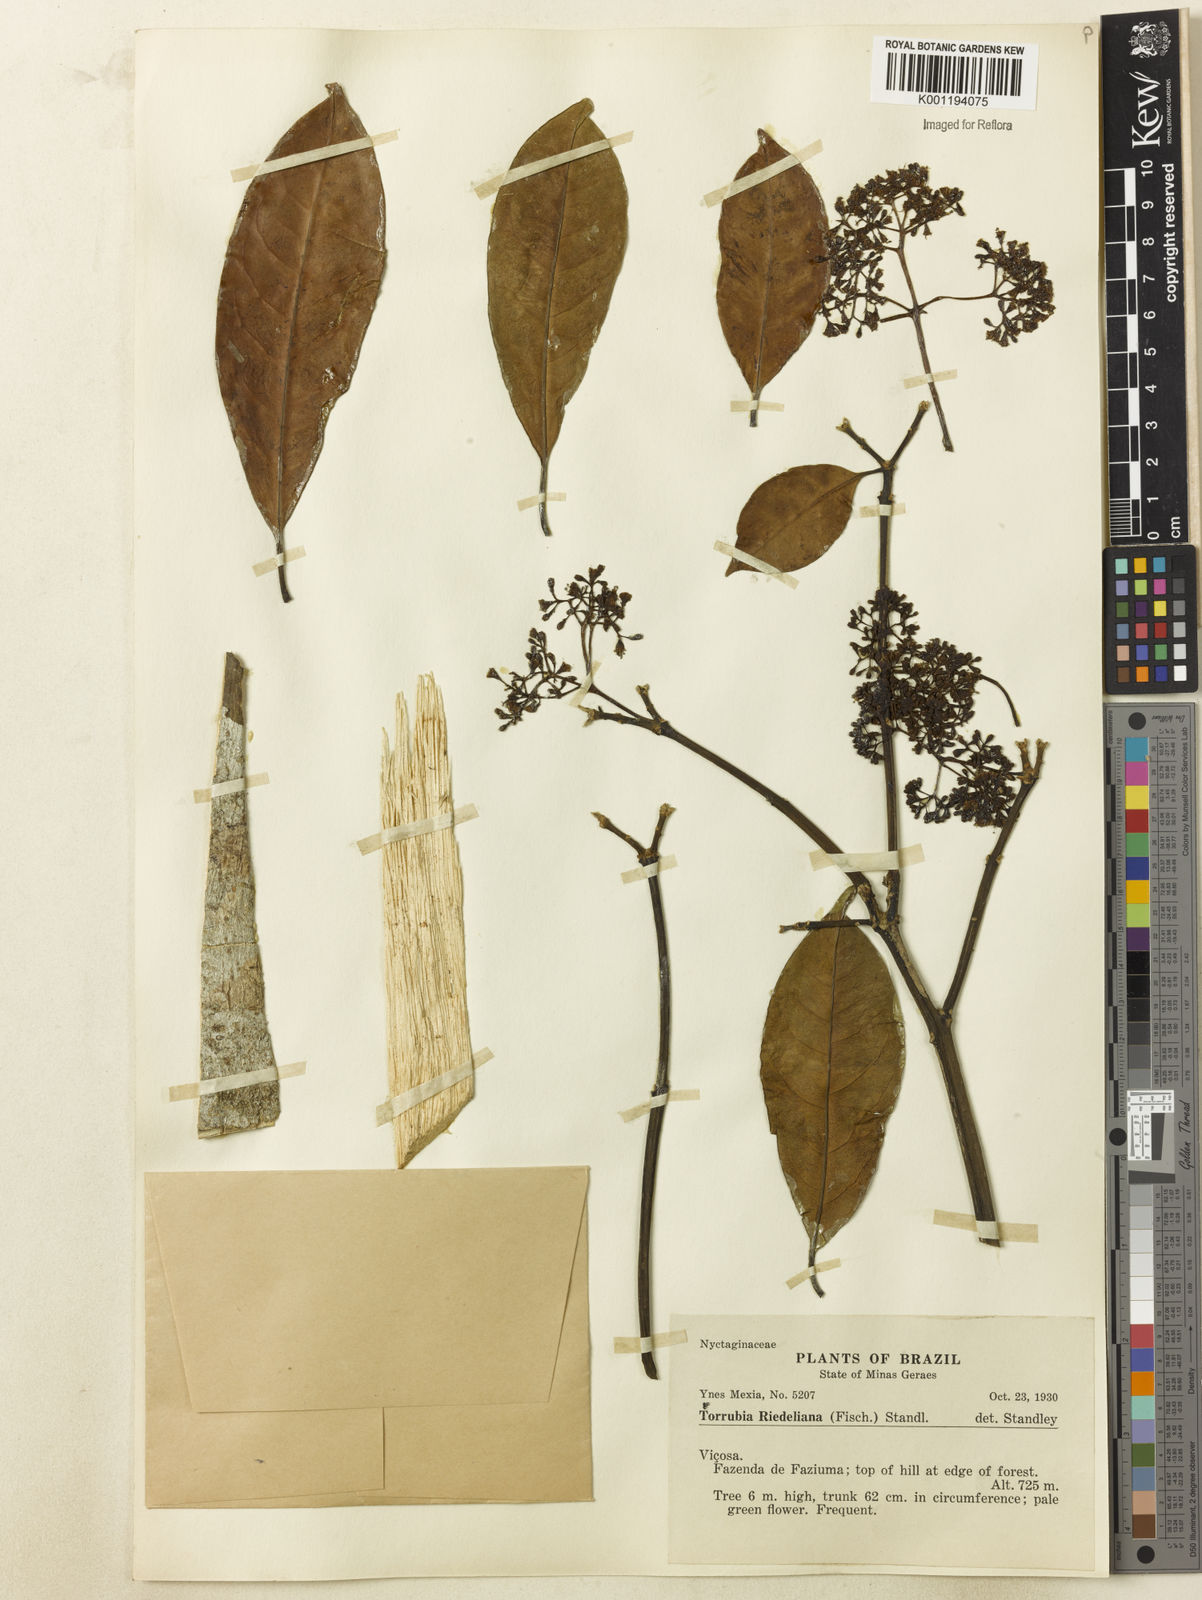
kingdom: Plantae
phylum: Tracheophyta
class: Magnoliopsida
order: Caryophyllales
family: Nyctaginaceae
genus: Guapira
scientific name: Guapira riedeliana
